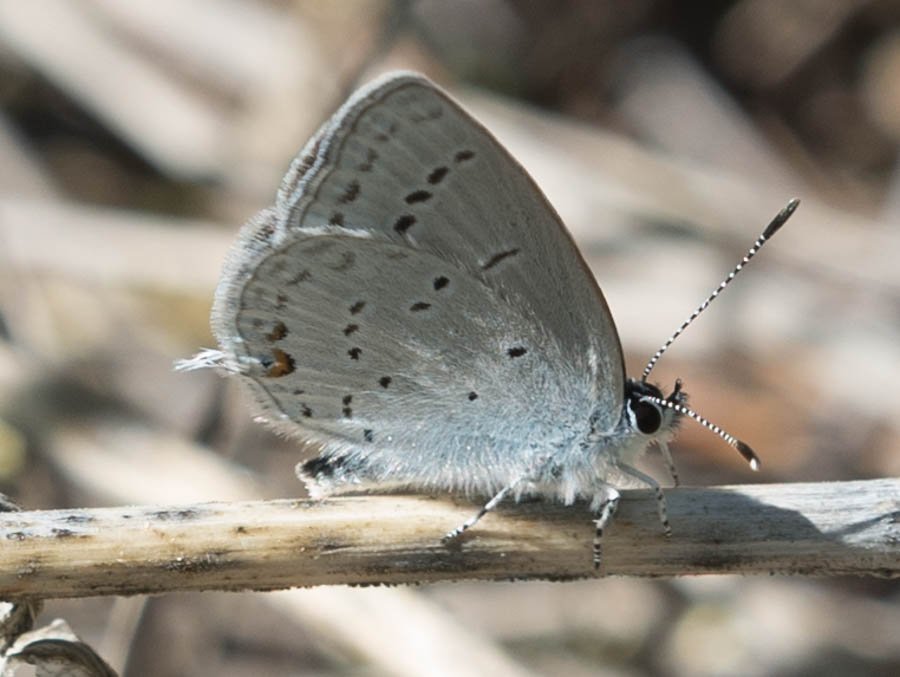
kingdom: Animalia
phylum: Arthropoda
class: Insecta
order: Lepidoptera
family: Lycaenidae
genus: Elkalyce
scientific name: Elkalyce amyntula
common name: Western Tailed-Blue
